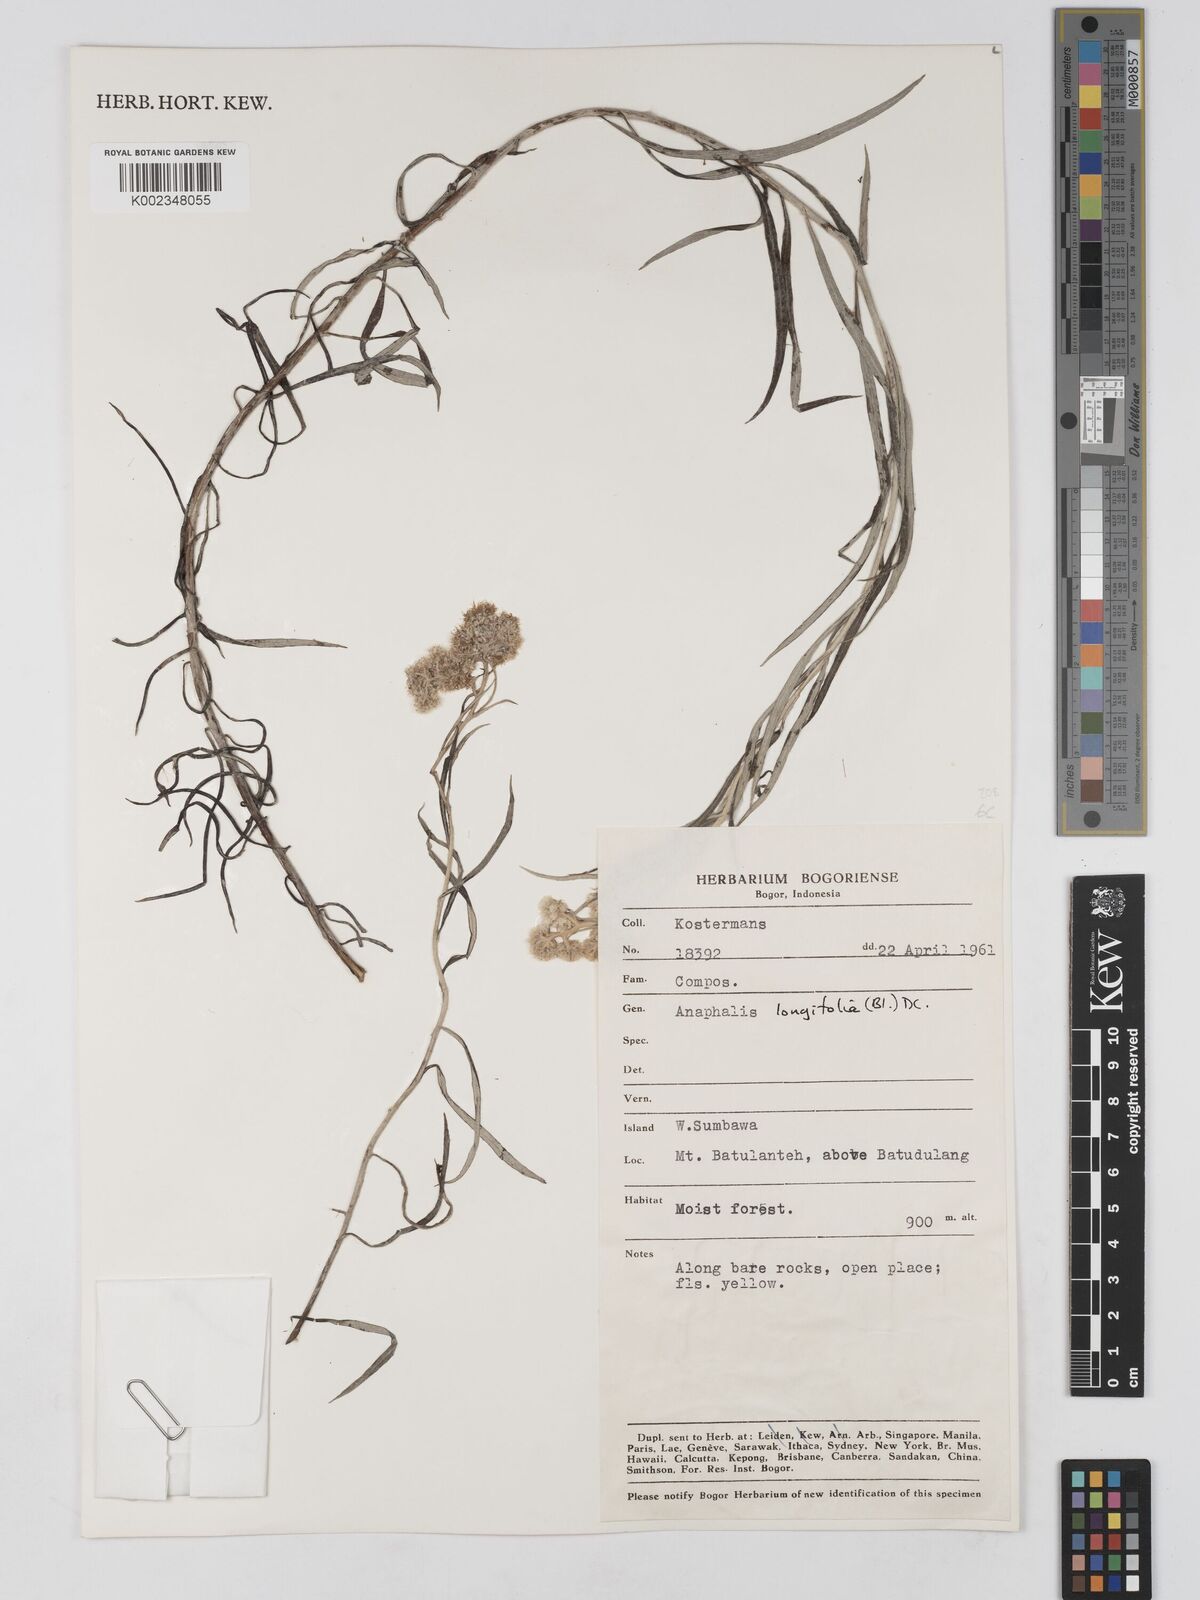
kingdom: Plantae
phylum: Tracheophyta
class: Magnoliopsida
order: Asterales
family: Asteraceae
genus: Anaphalis
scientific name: Anaphalis longifolia
